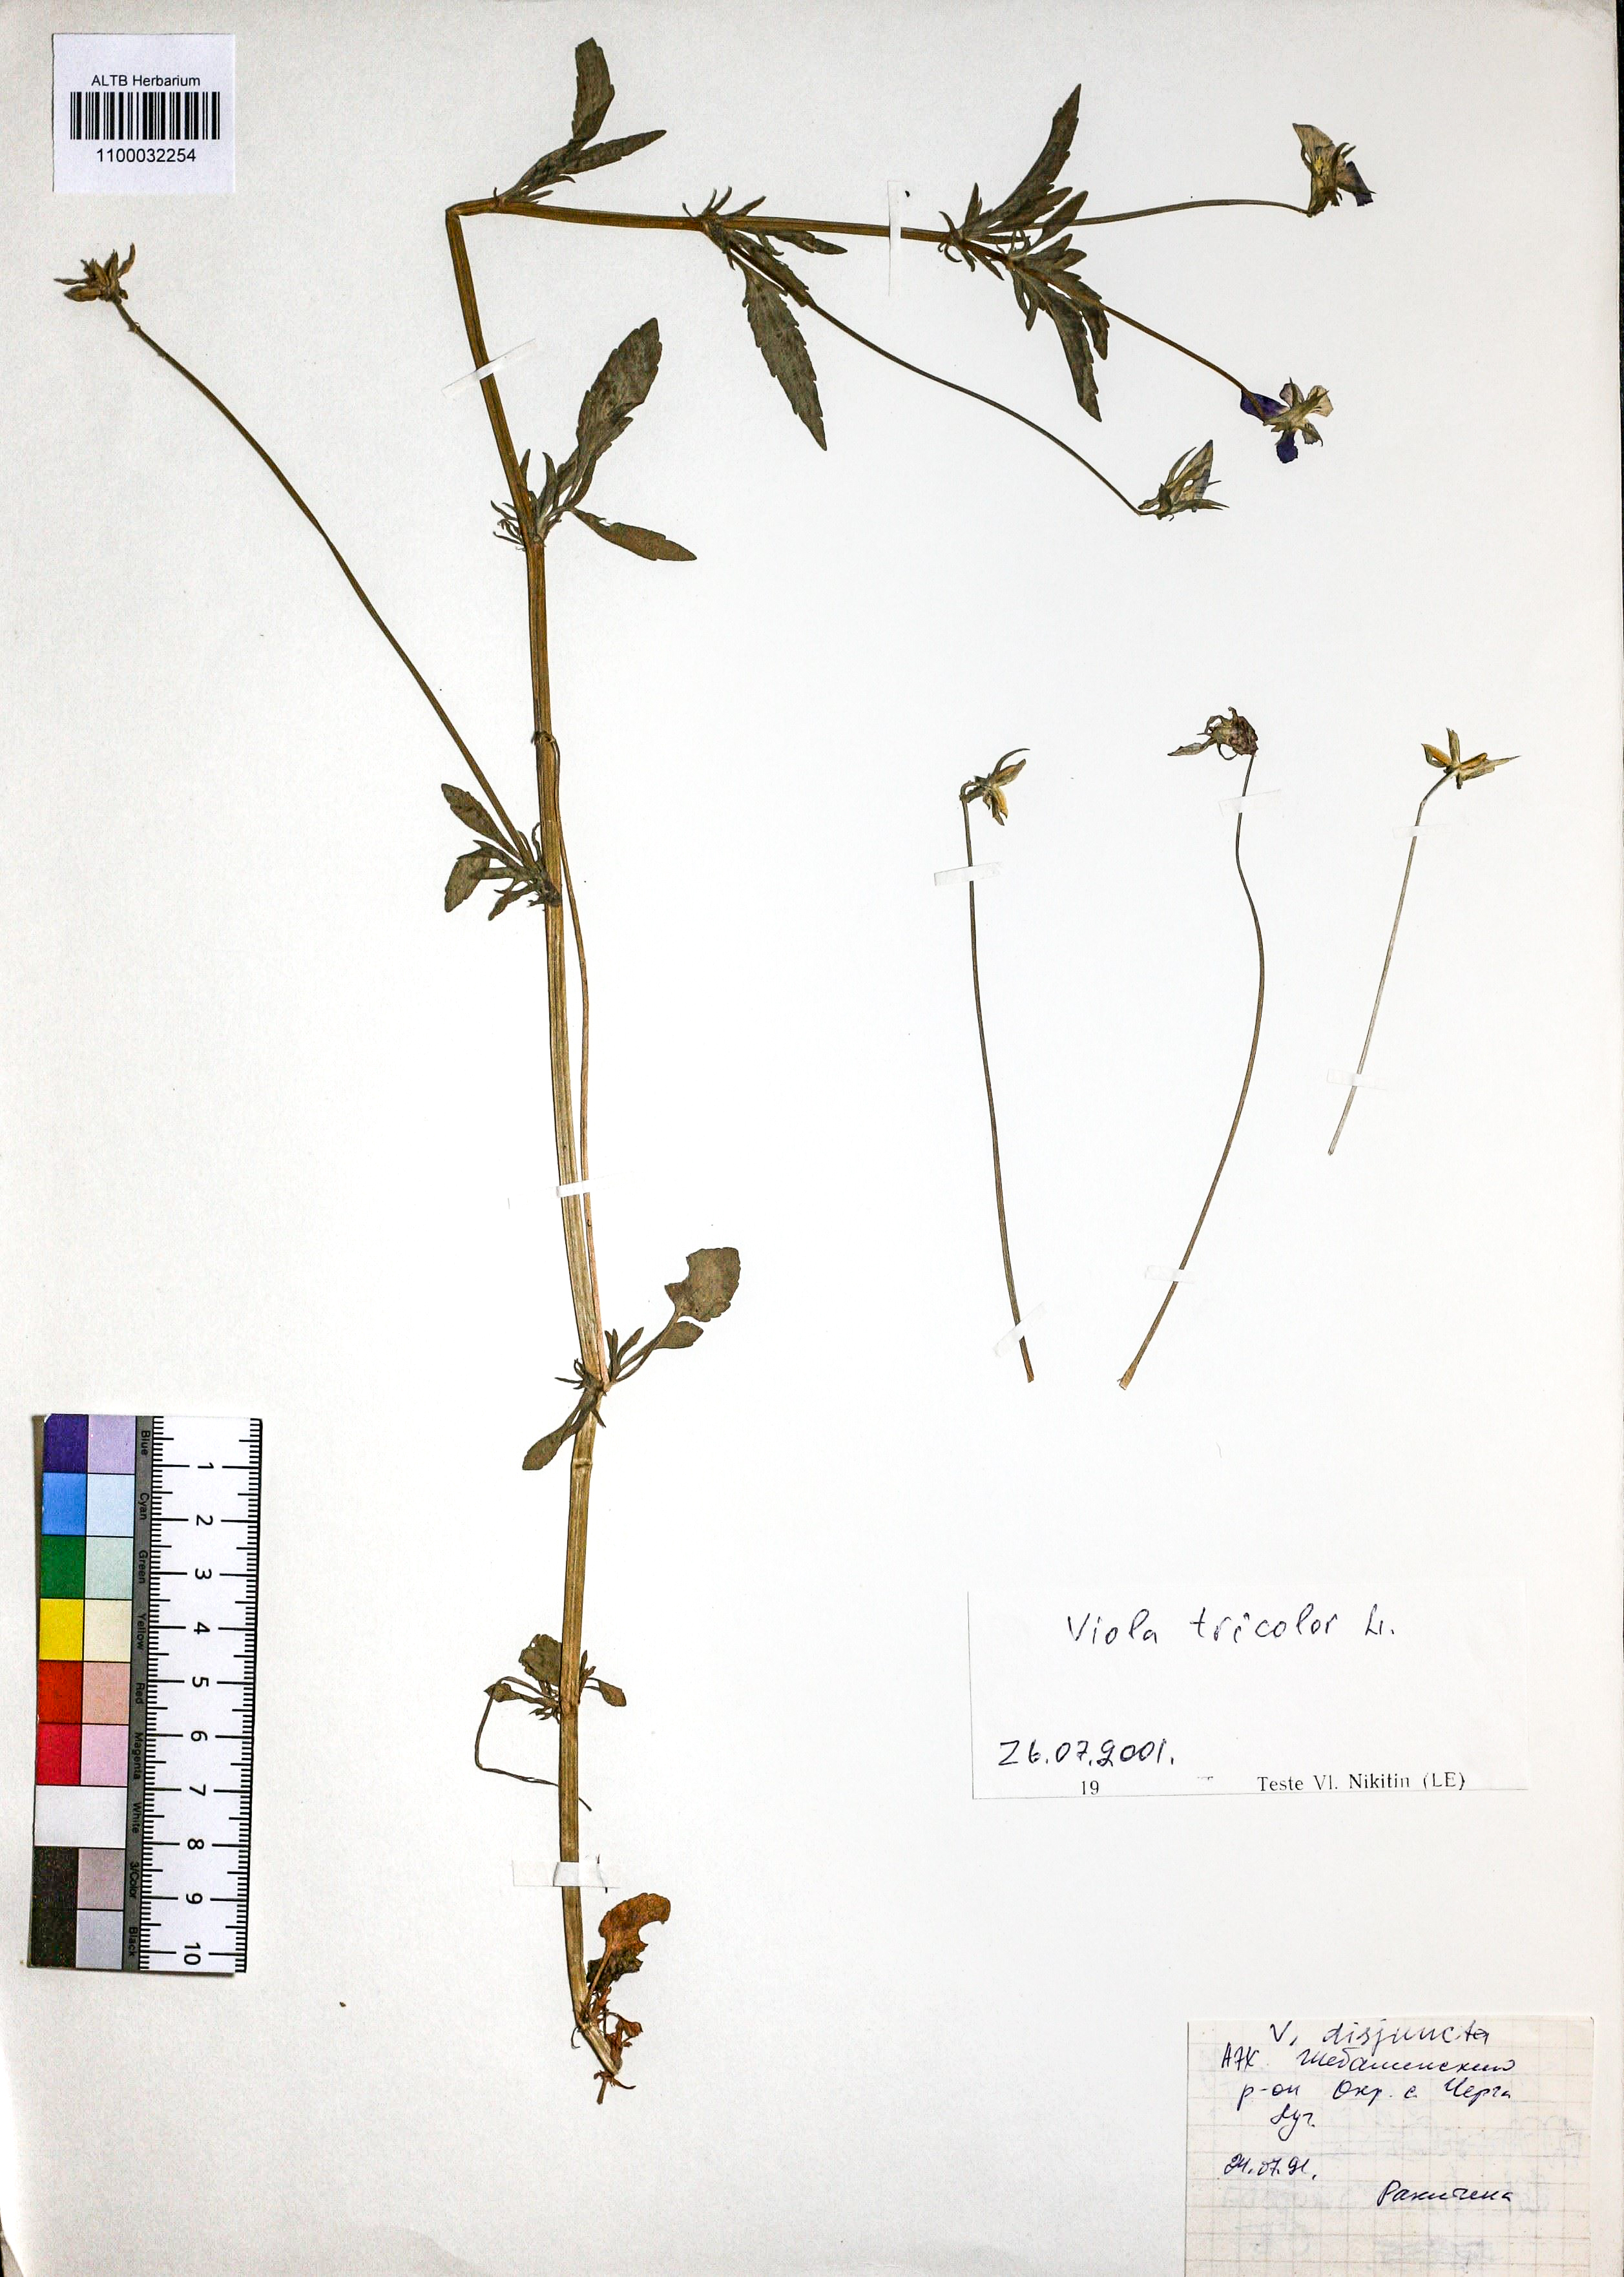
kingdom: Plantae
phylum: Tracheophyta
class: Magnoliopsida
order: Malpighiales
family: Violaceae
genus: Viola
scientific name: Viola tricolor
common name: Pansy
